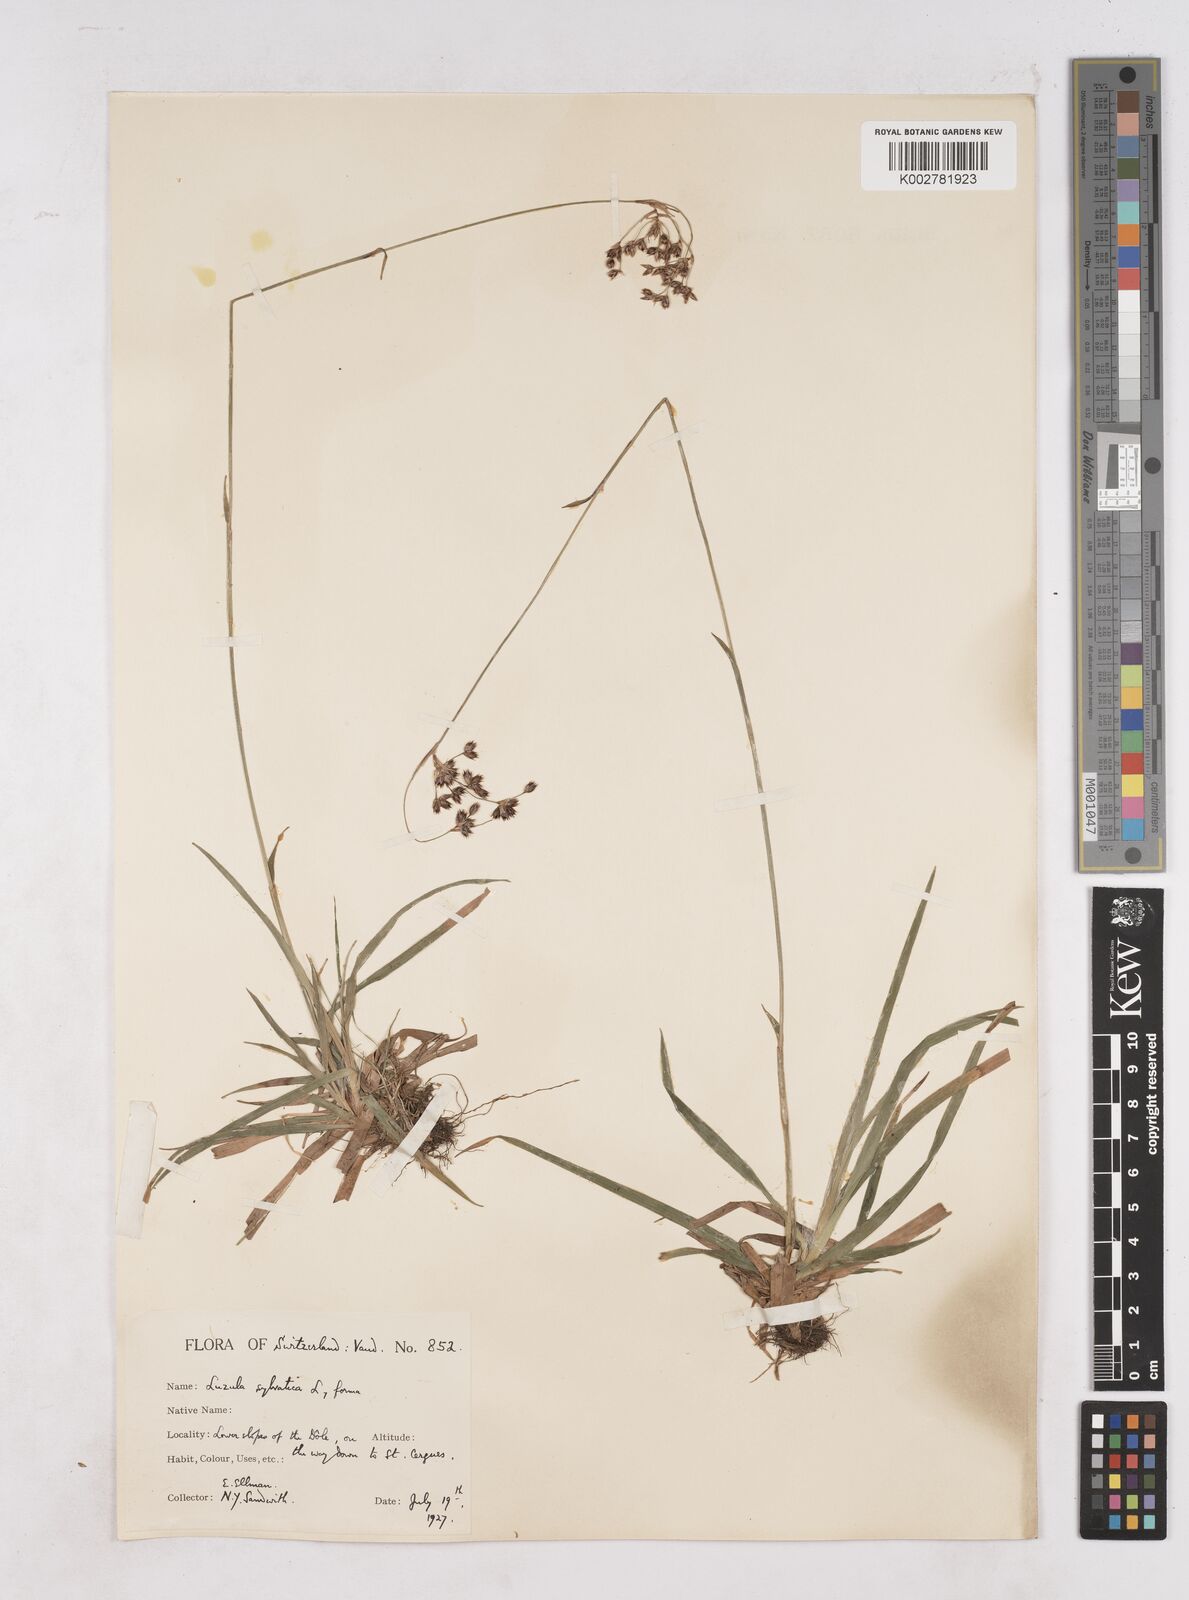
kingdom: Plantae
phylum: Tracheophyta
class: Liliopsida
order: Poales
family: Juncaceae
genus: Luzula
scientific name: Luzula sylvatica
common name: Great wood-rush
